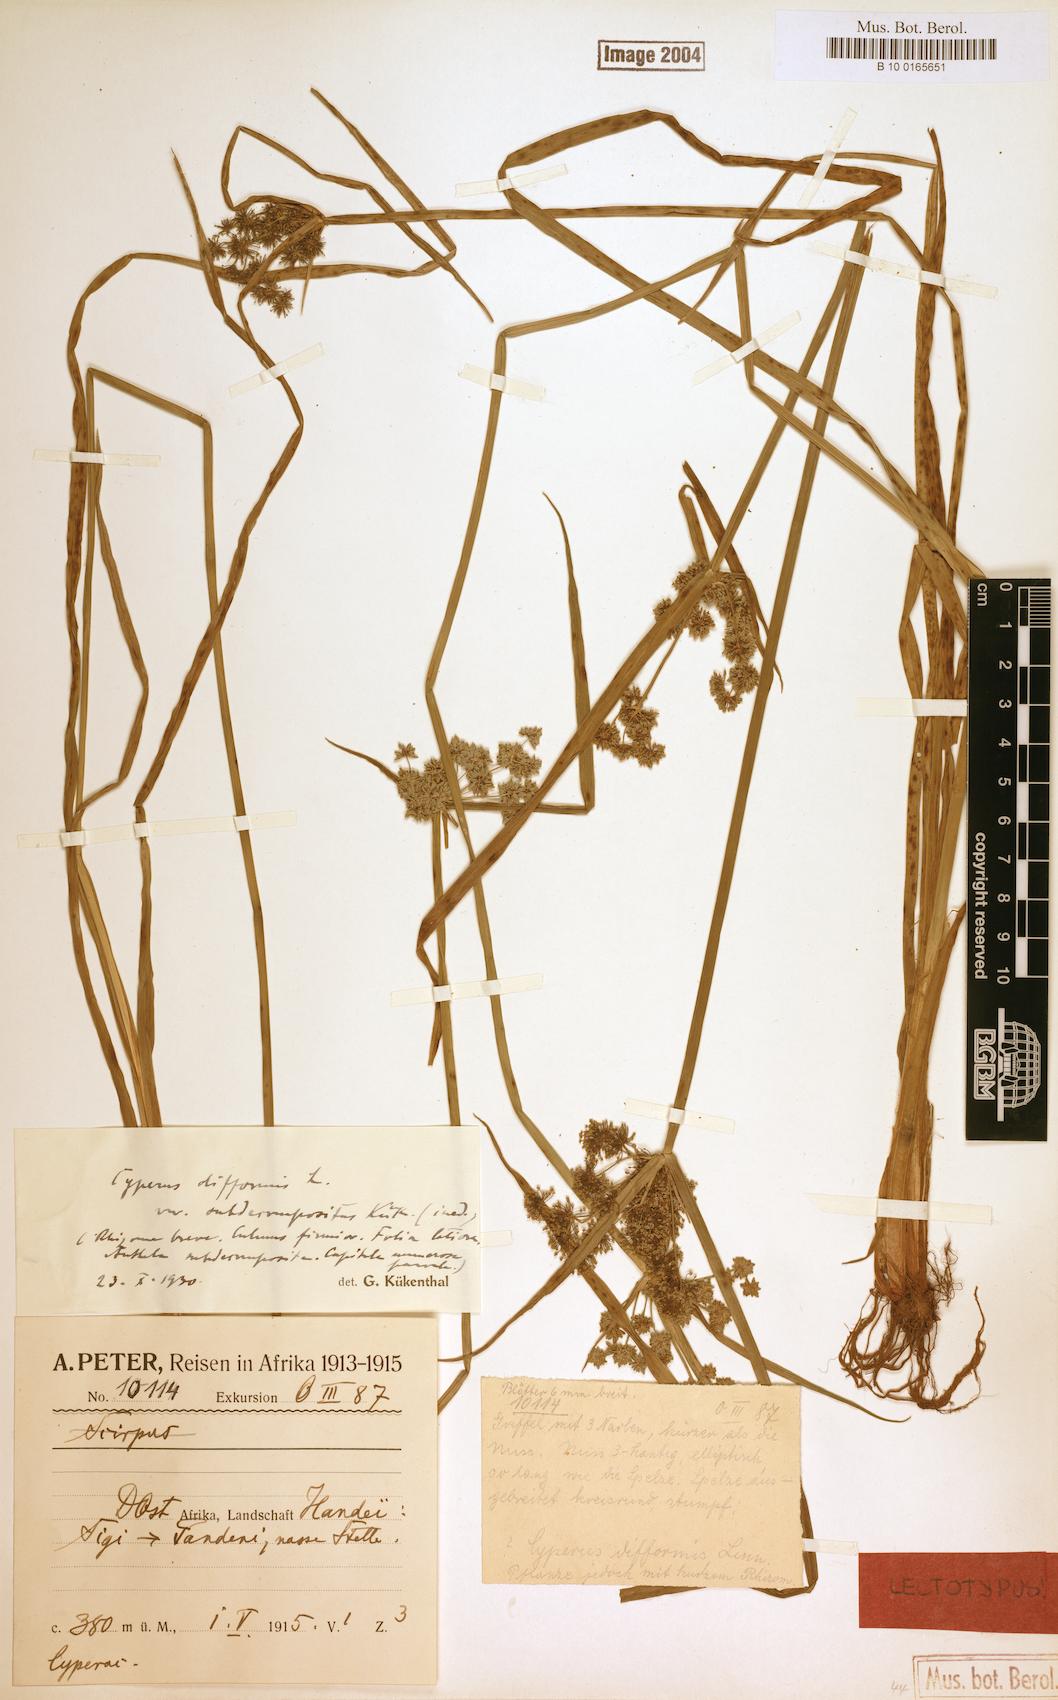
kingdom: Plantae
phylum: Tracheophyta
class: Liliopsida
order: Poales
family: Cyperaceae
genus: Cyperus
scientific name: Cyperus difformis
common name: Variable flatsedge
